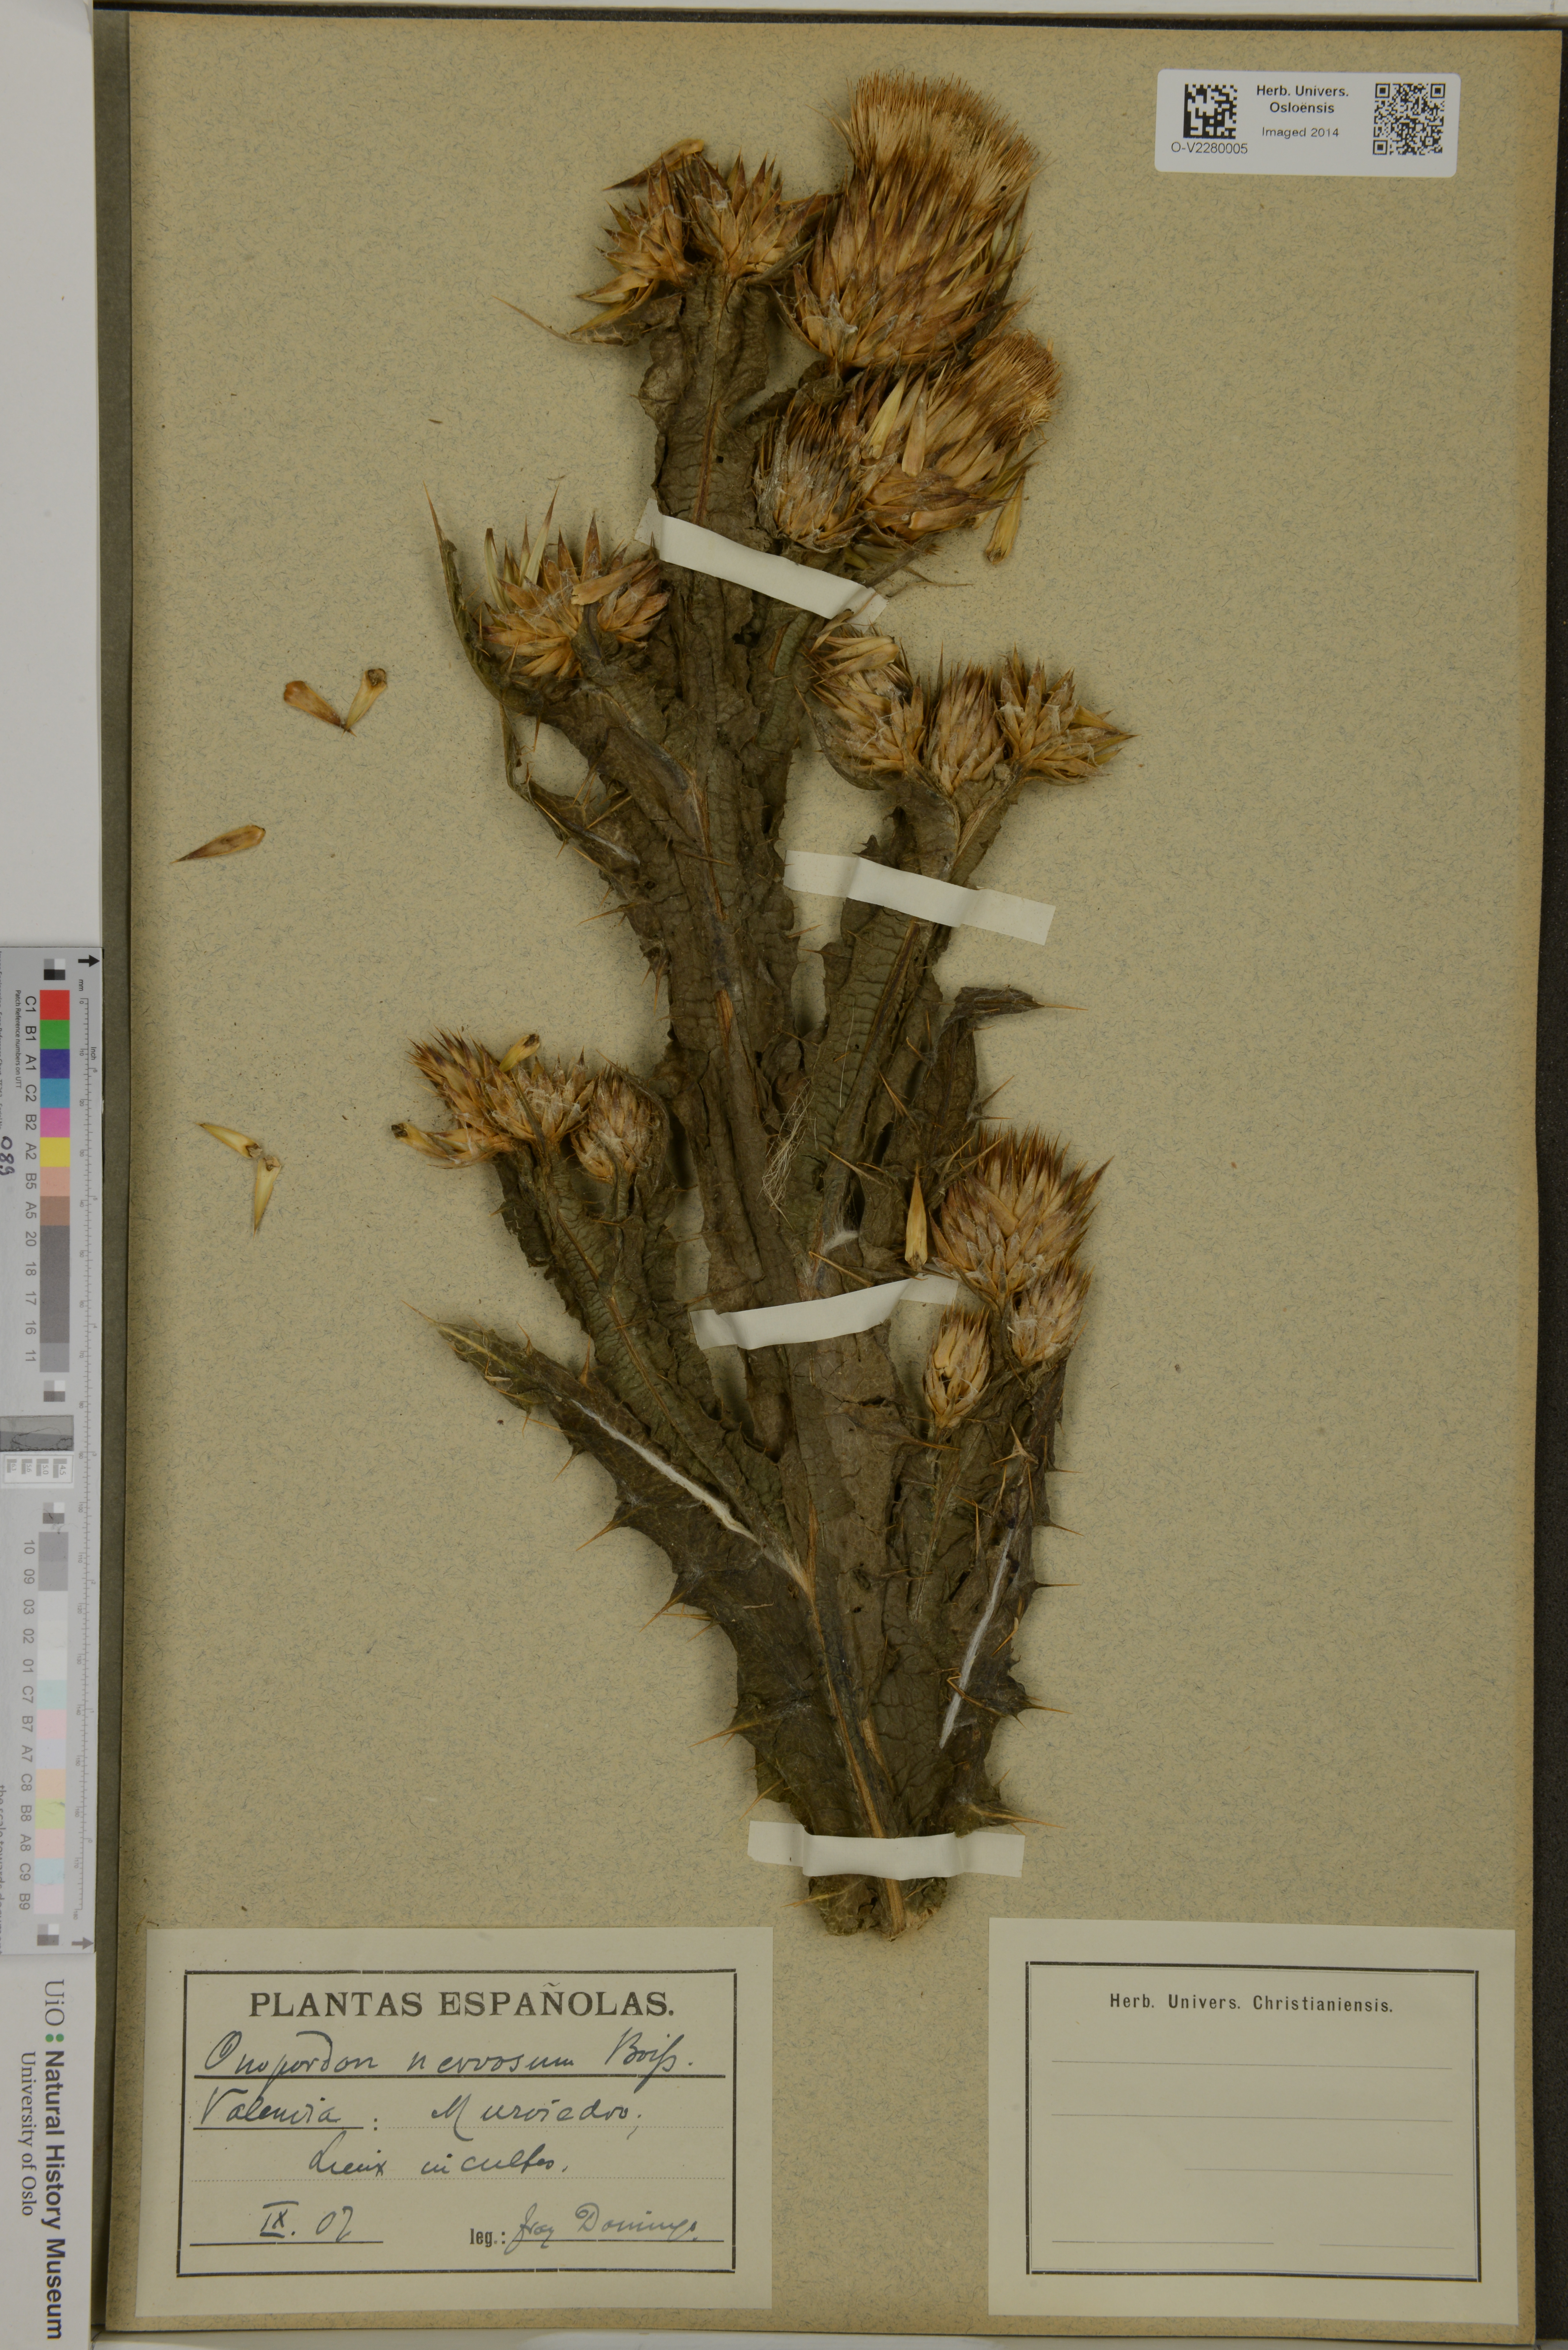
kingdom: Plantae
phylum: Tracheophyta
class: Magnoliopsida
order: Asterales
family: Asteraceae
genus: Onopordum
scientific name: Onopordum nervosum
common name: Reticulate thistle
